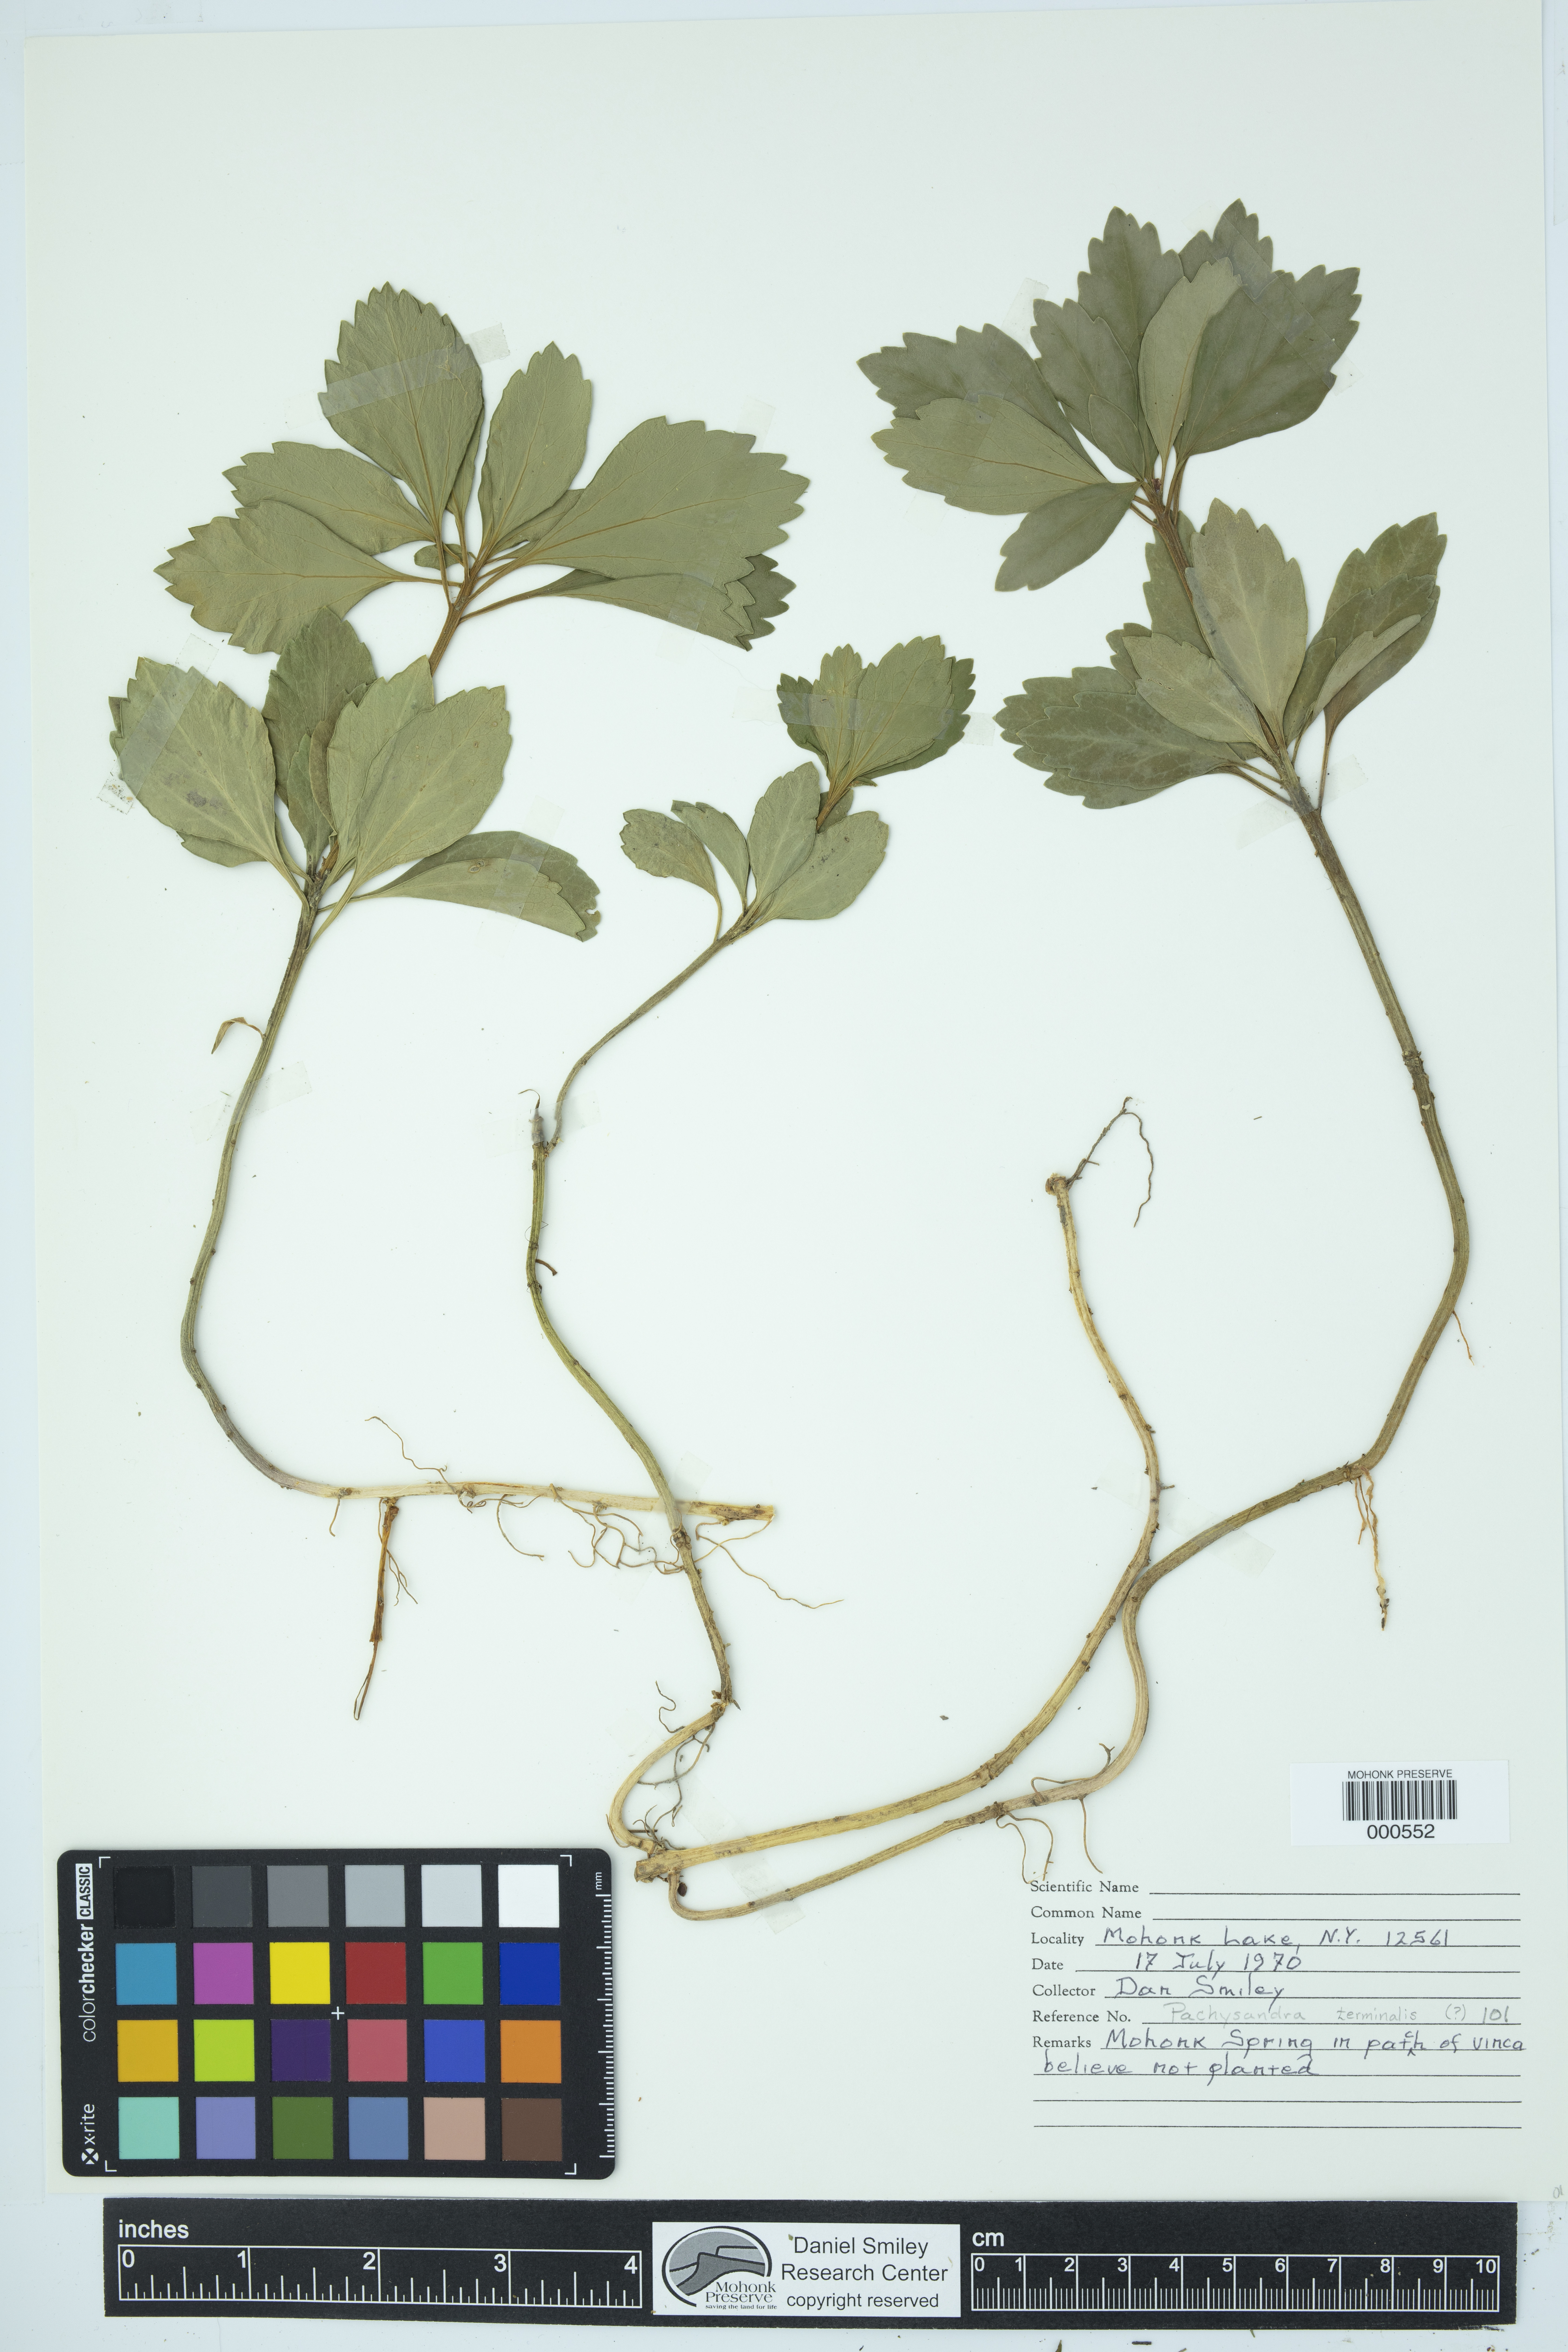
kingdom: Plantae
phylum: Tracheophyta
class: Magnoliopsida
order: Brassicales
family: Brassicaceae
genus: Lepidium
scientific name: Lepidium campestre
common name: Field pepperwort
